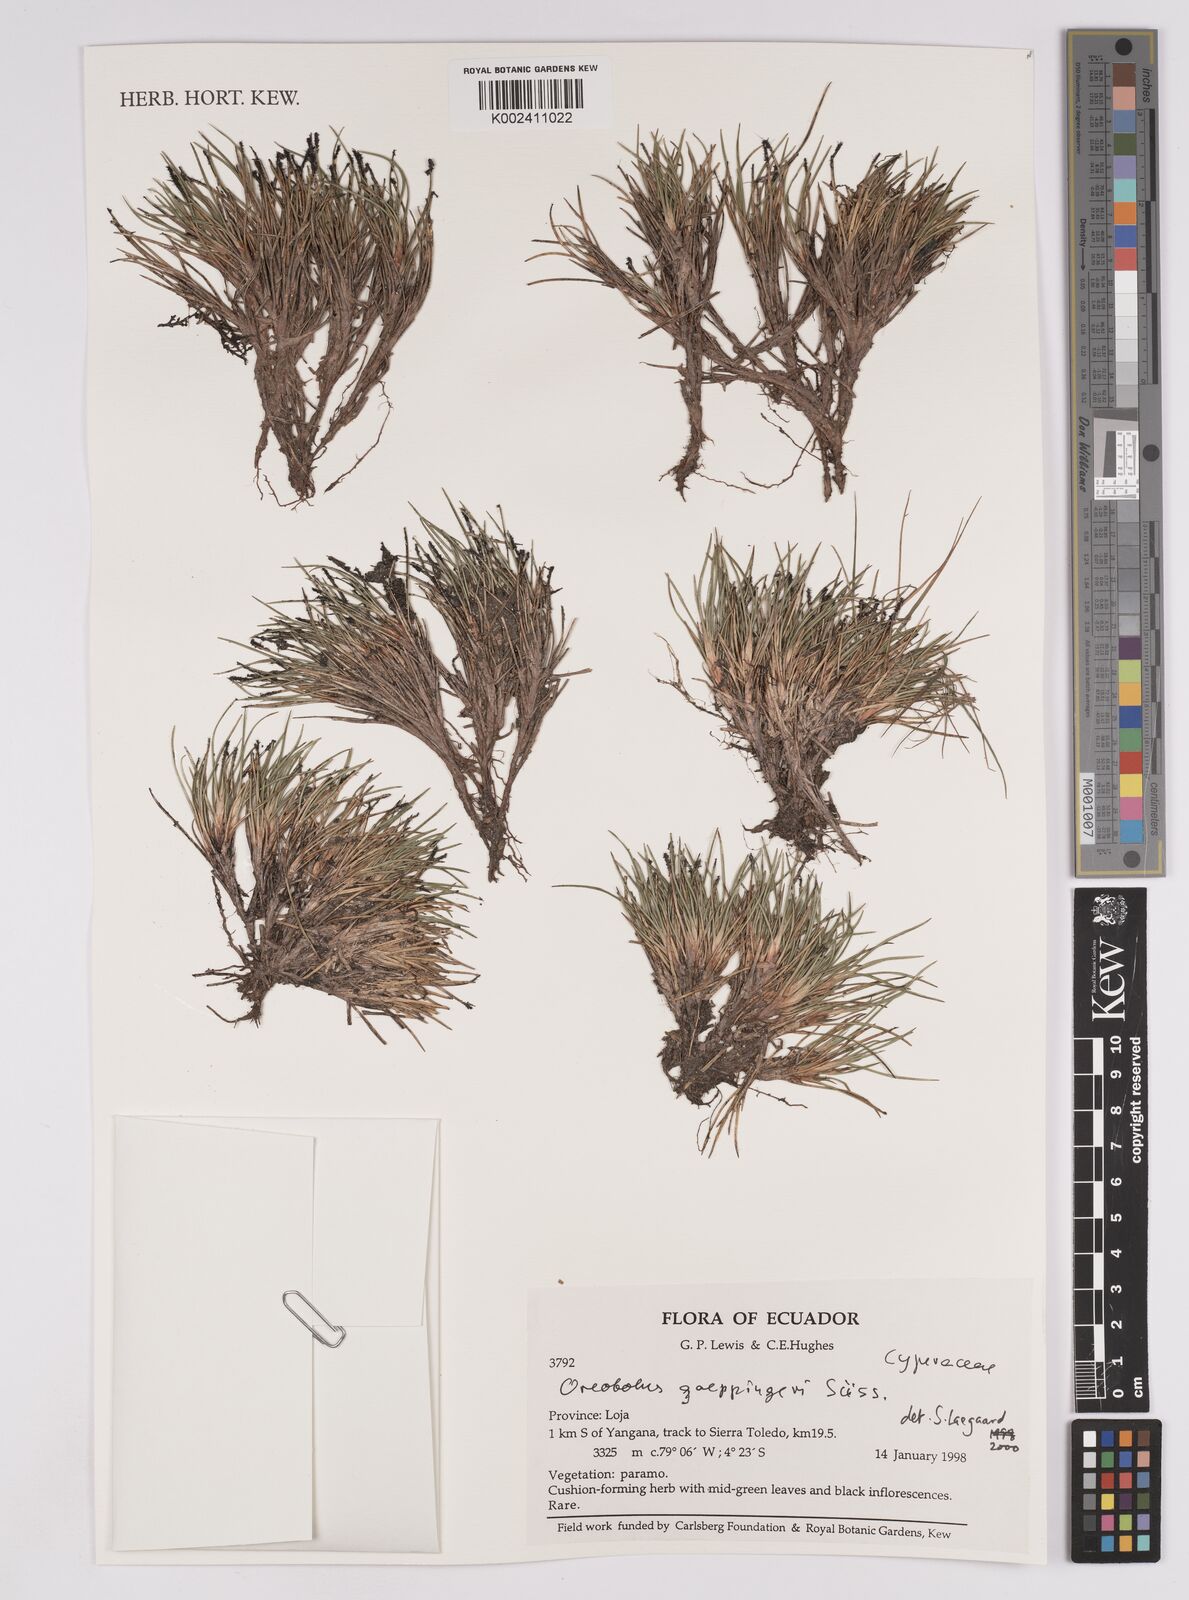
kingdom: Plantae
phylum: Tracheophyta
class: Liliopsida
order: Poales
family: Cyperaceae
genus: Oreobolus
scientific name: Oreobolus goeppingeri
